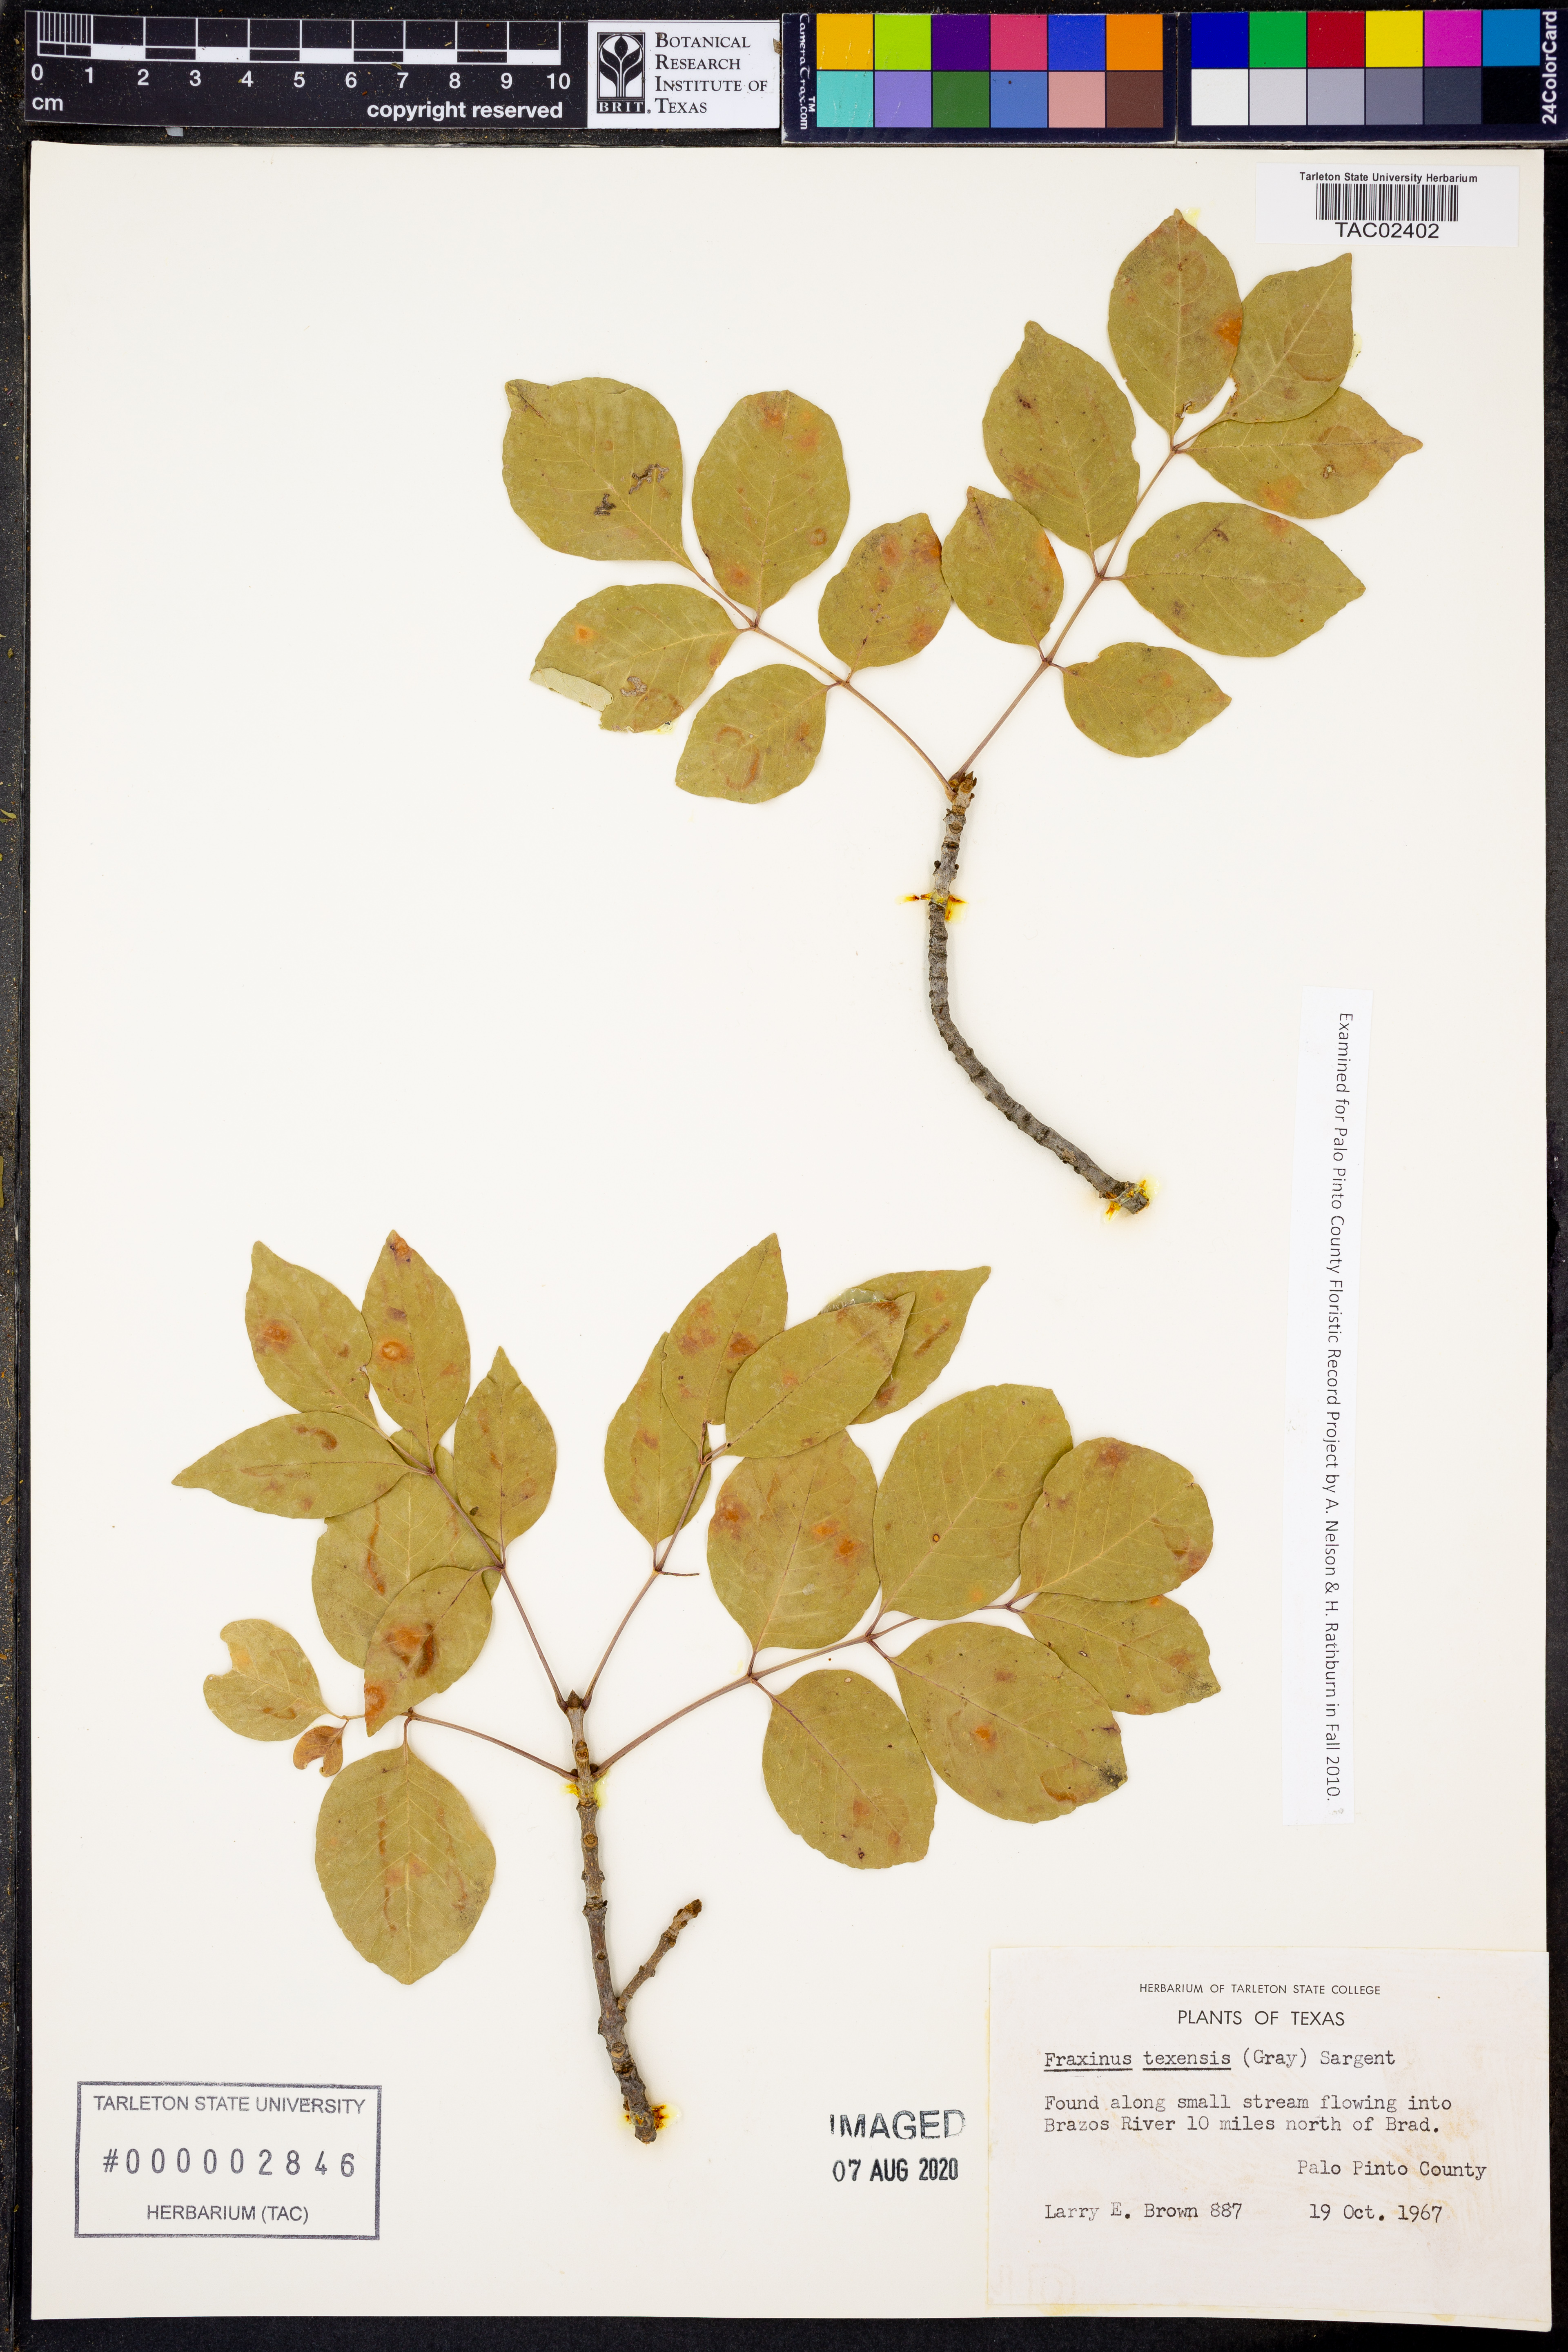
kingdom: Plantae
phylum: Tracheophyta
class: Magnoliopsida
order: Lamiales
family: Oleaceae
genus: Fraxinus
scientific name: Fraxinus albicans
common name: Texas ash
